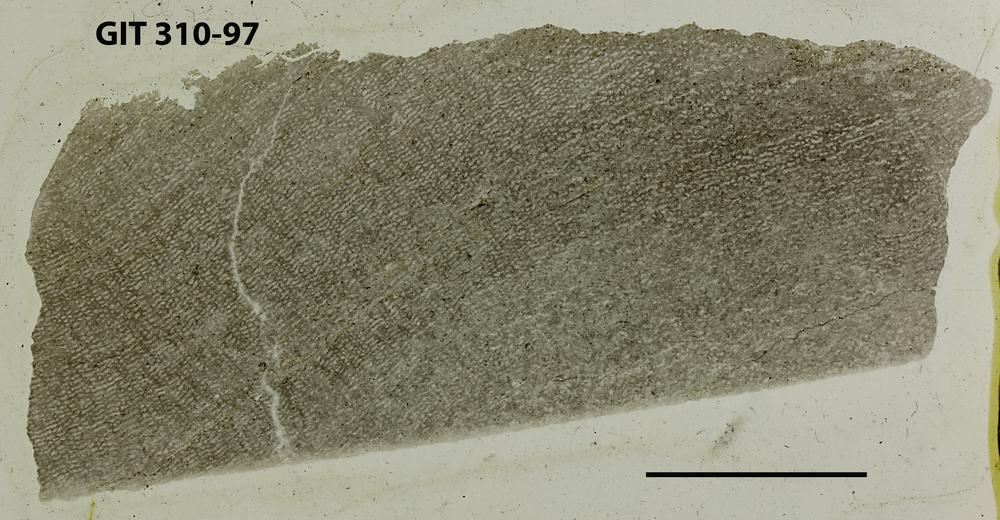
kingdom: Animalia
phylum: Porifera
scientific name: Porifera
